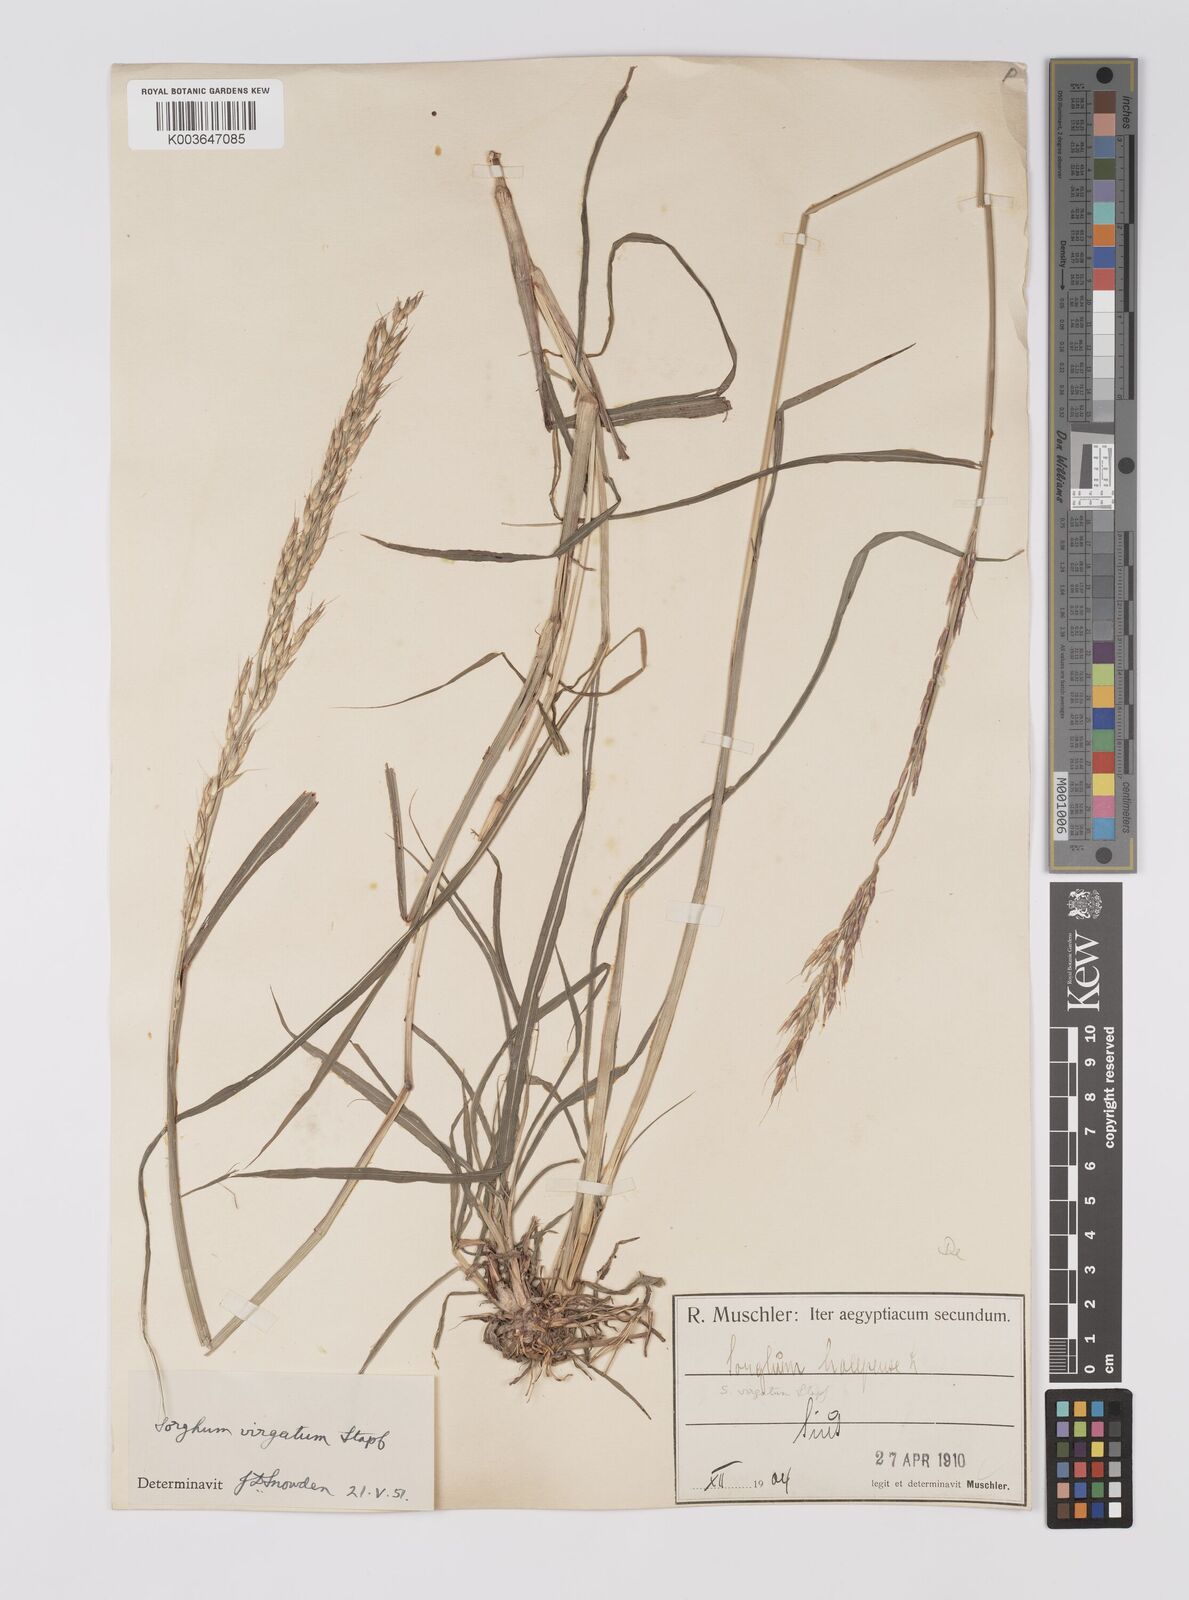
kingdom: Plantae
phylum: Tracheophyta
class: Liliopsida
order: Poales
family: Poaceae
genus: Sorghum
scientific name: Sorghum virgatum
